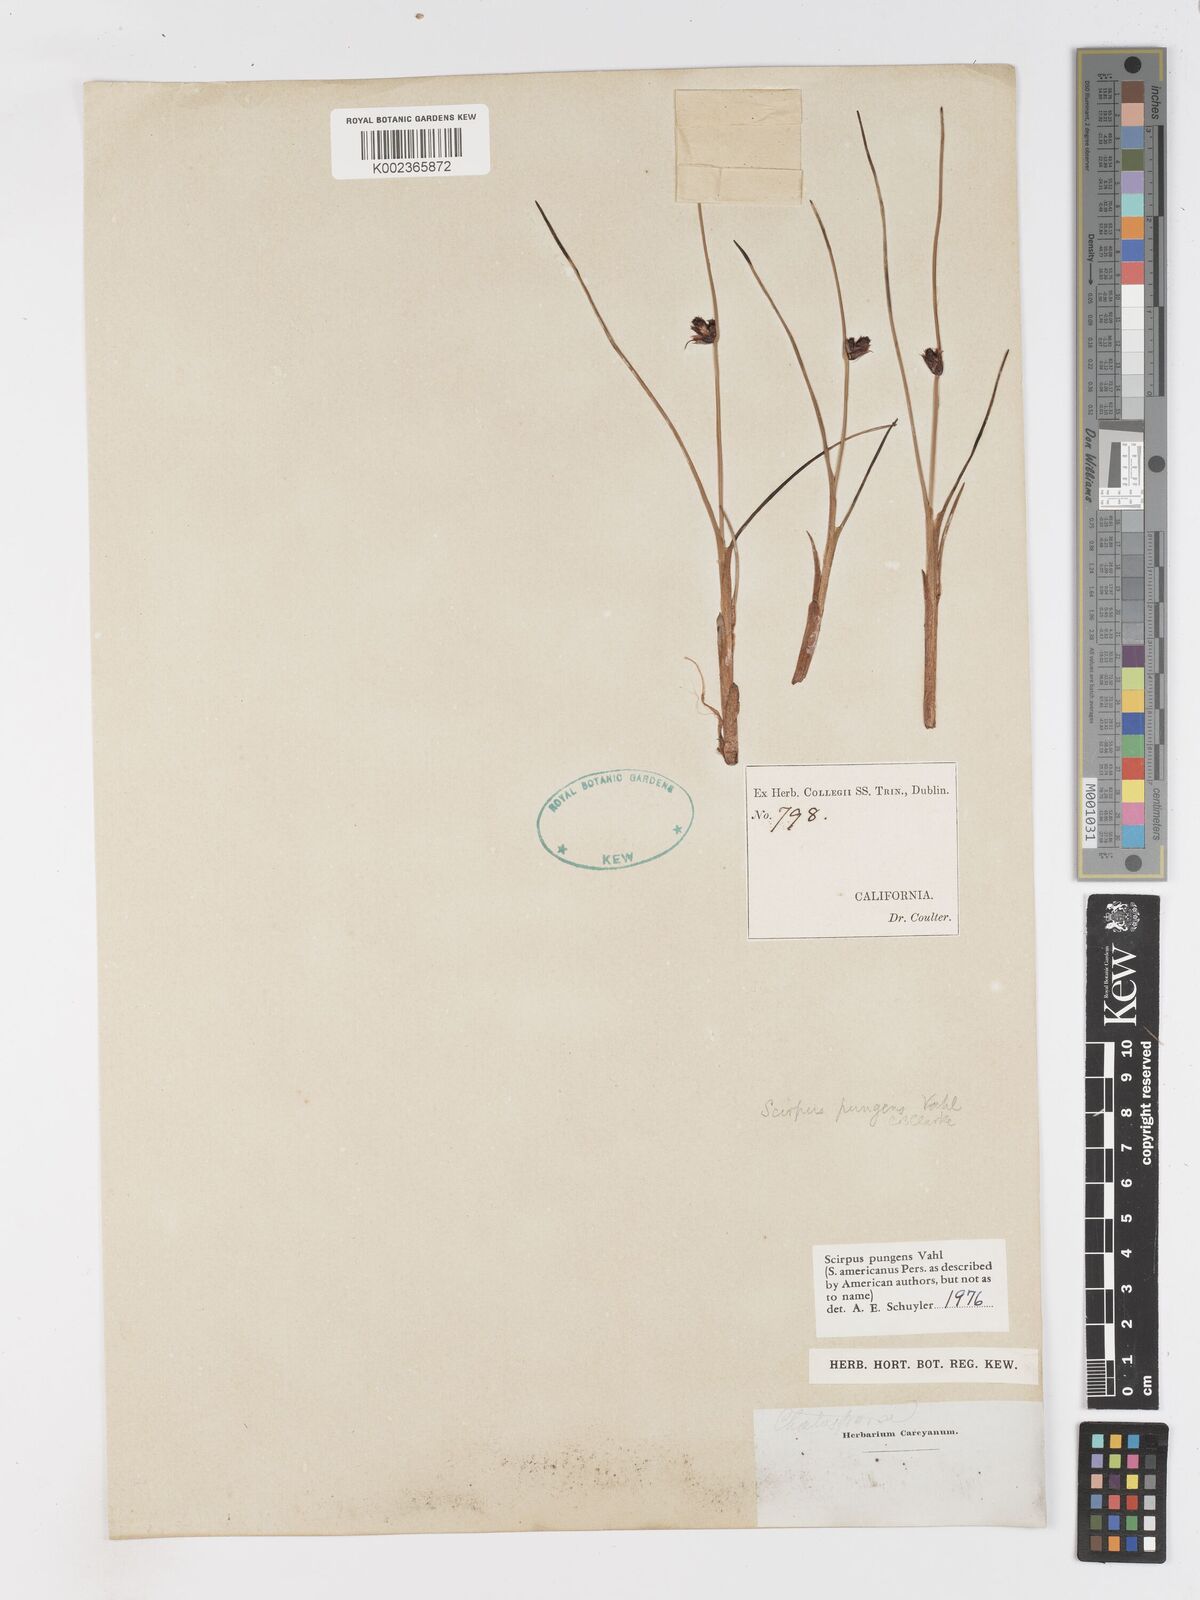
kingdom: Plantae
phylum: Tracheophyta
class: Liliopsida
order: Poales
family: Cyperaceae
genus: Schoenoplectus
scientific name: Schoenoplectus pungens
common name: Sharp club-rush
